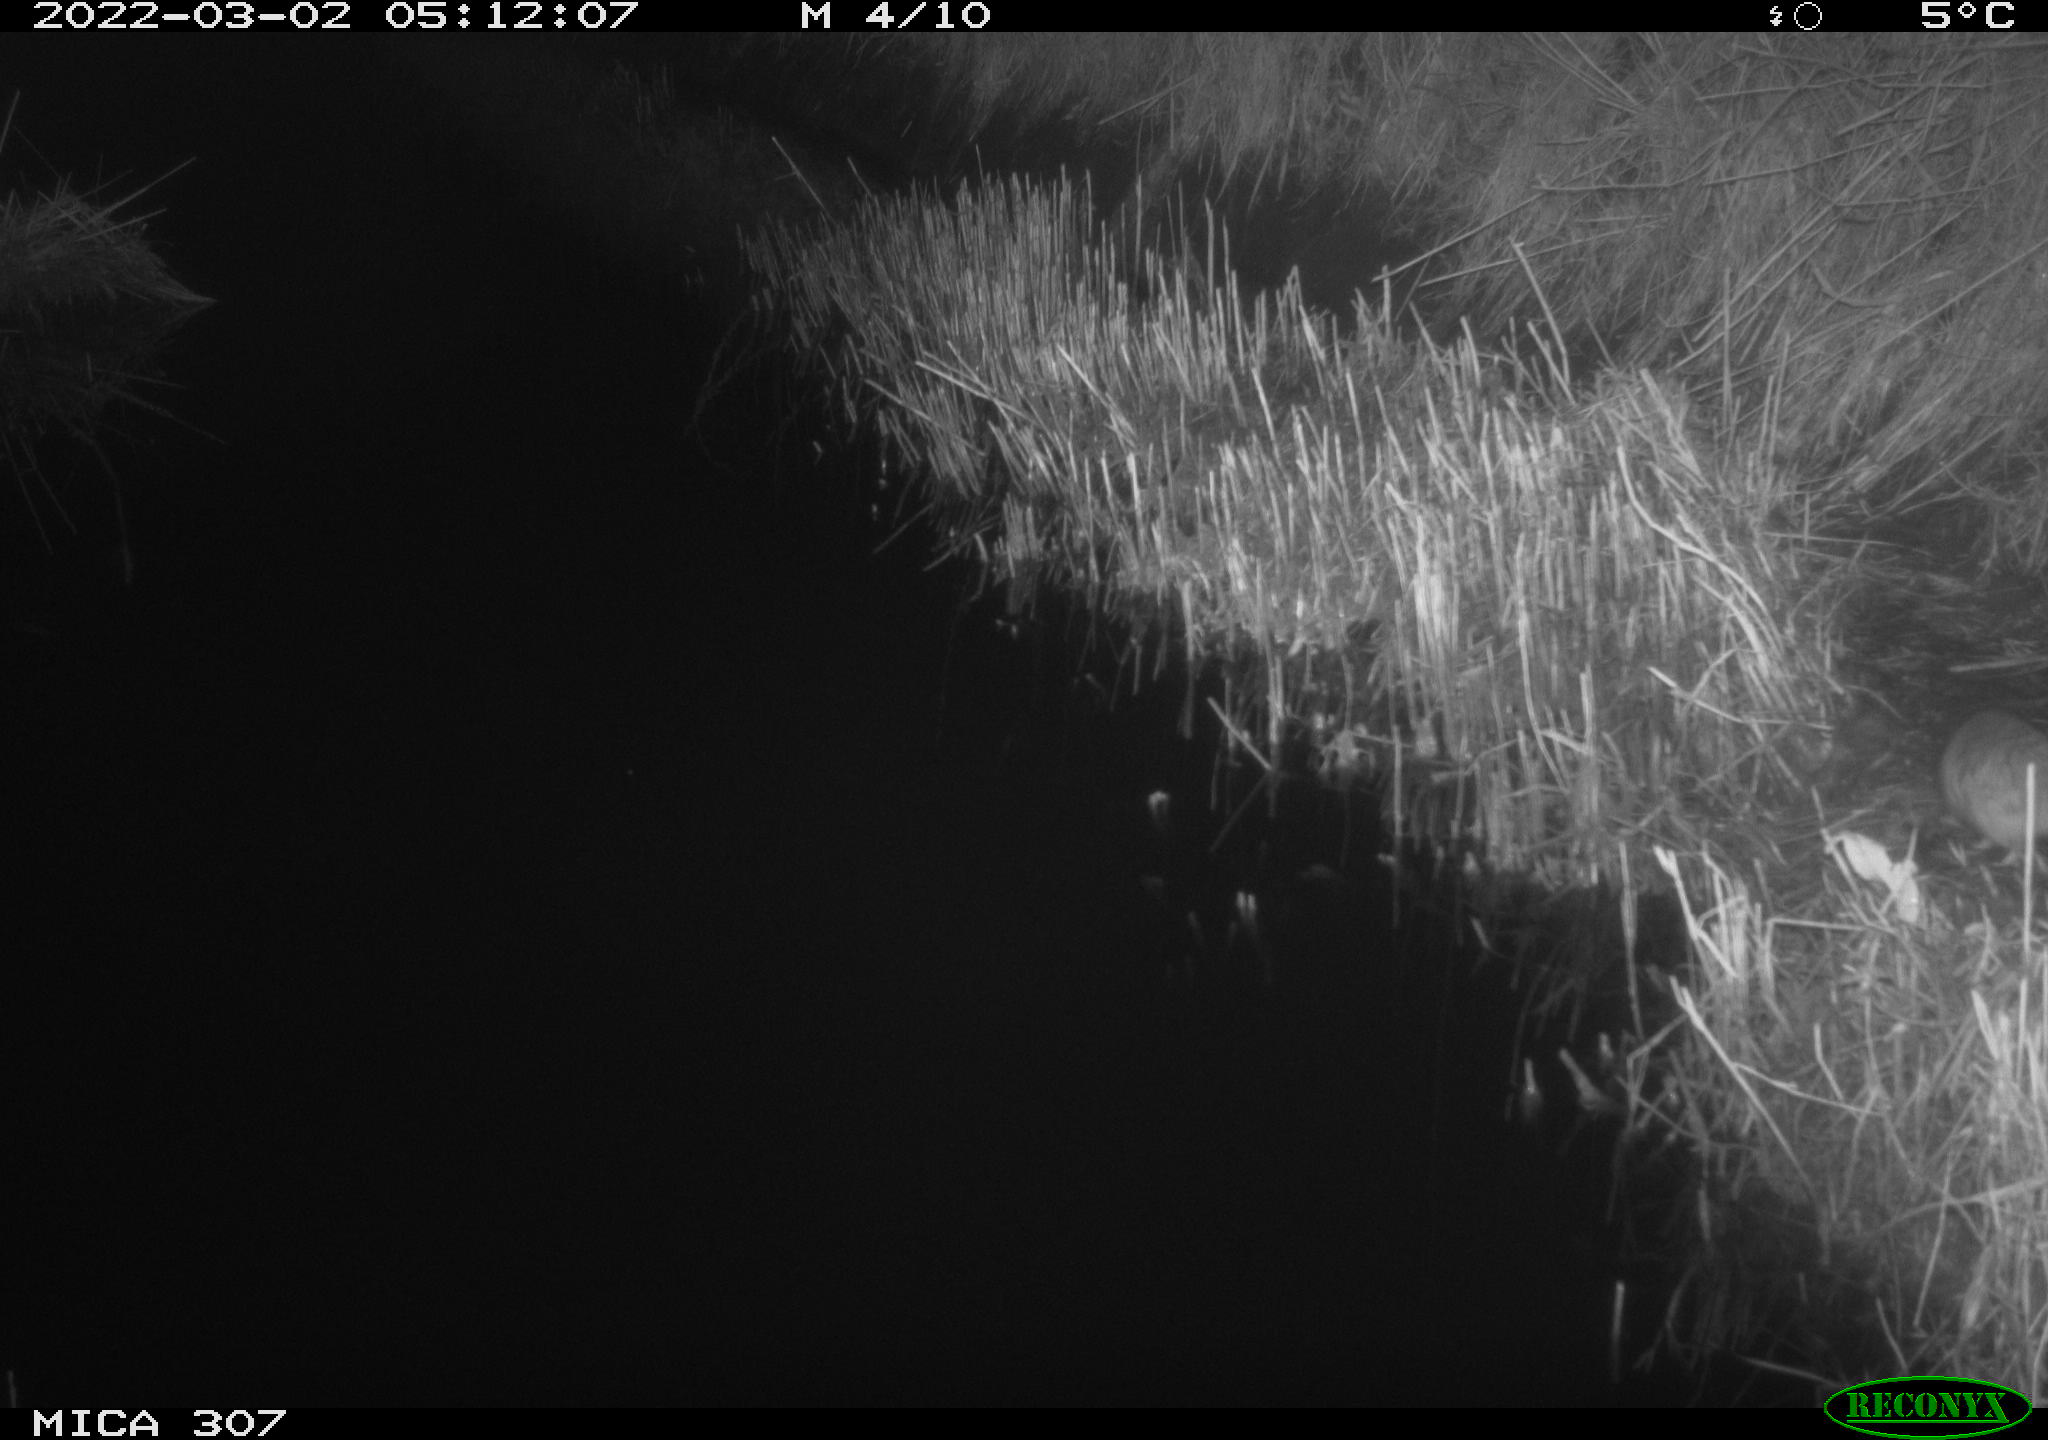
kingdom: Animalia
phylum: Chordata
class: Mammalia
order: Rodentia
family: Muridae
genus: Rattus
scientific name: Rattus norvegicus
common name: Brown rat
